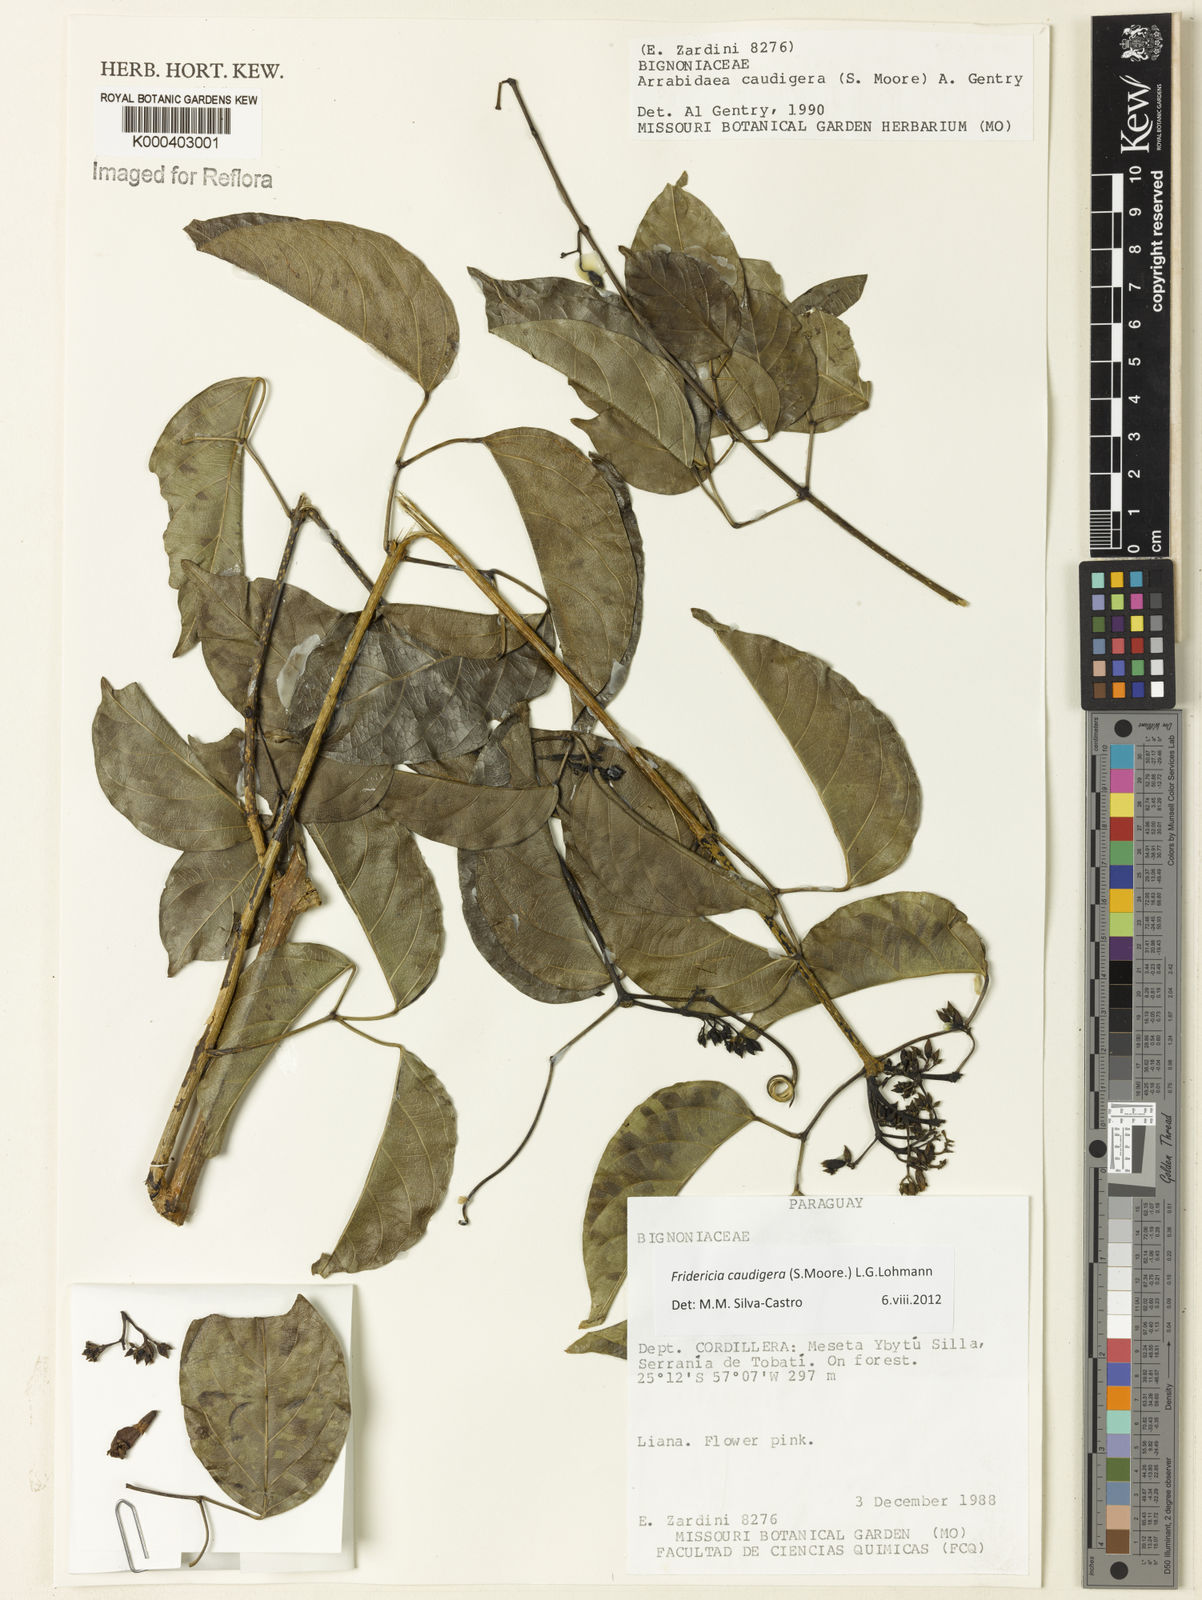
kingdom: Plantae
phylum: Tracheophyta
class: Magnoliopsida
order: Lamiales
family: Bignoniaceae
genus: Fridericia
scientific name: Fridericia caudigera
